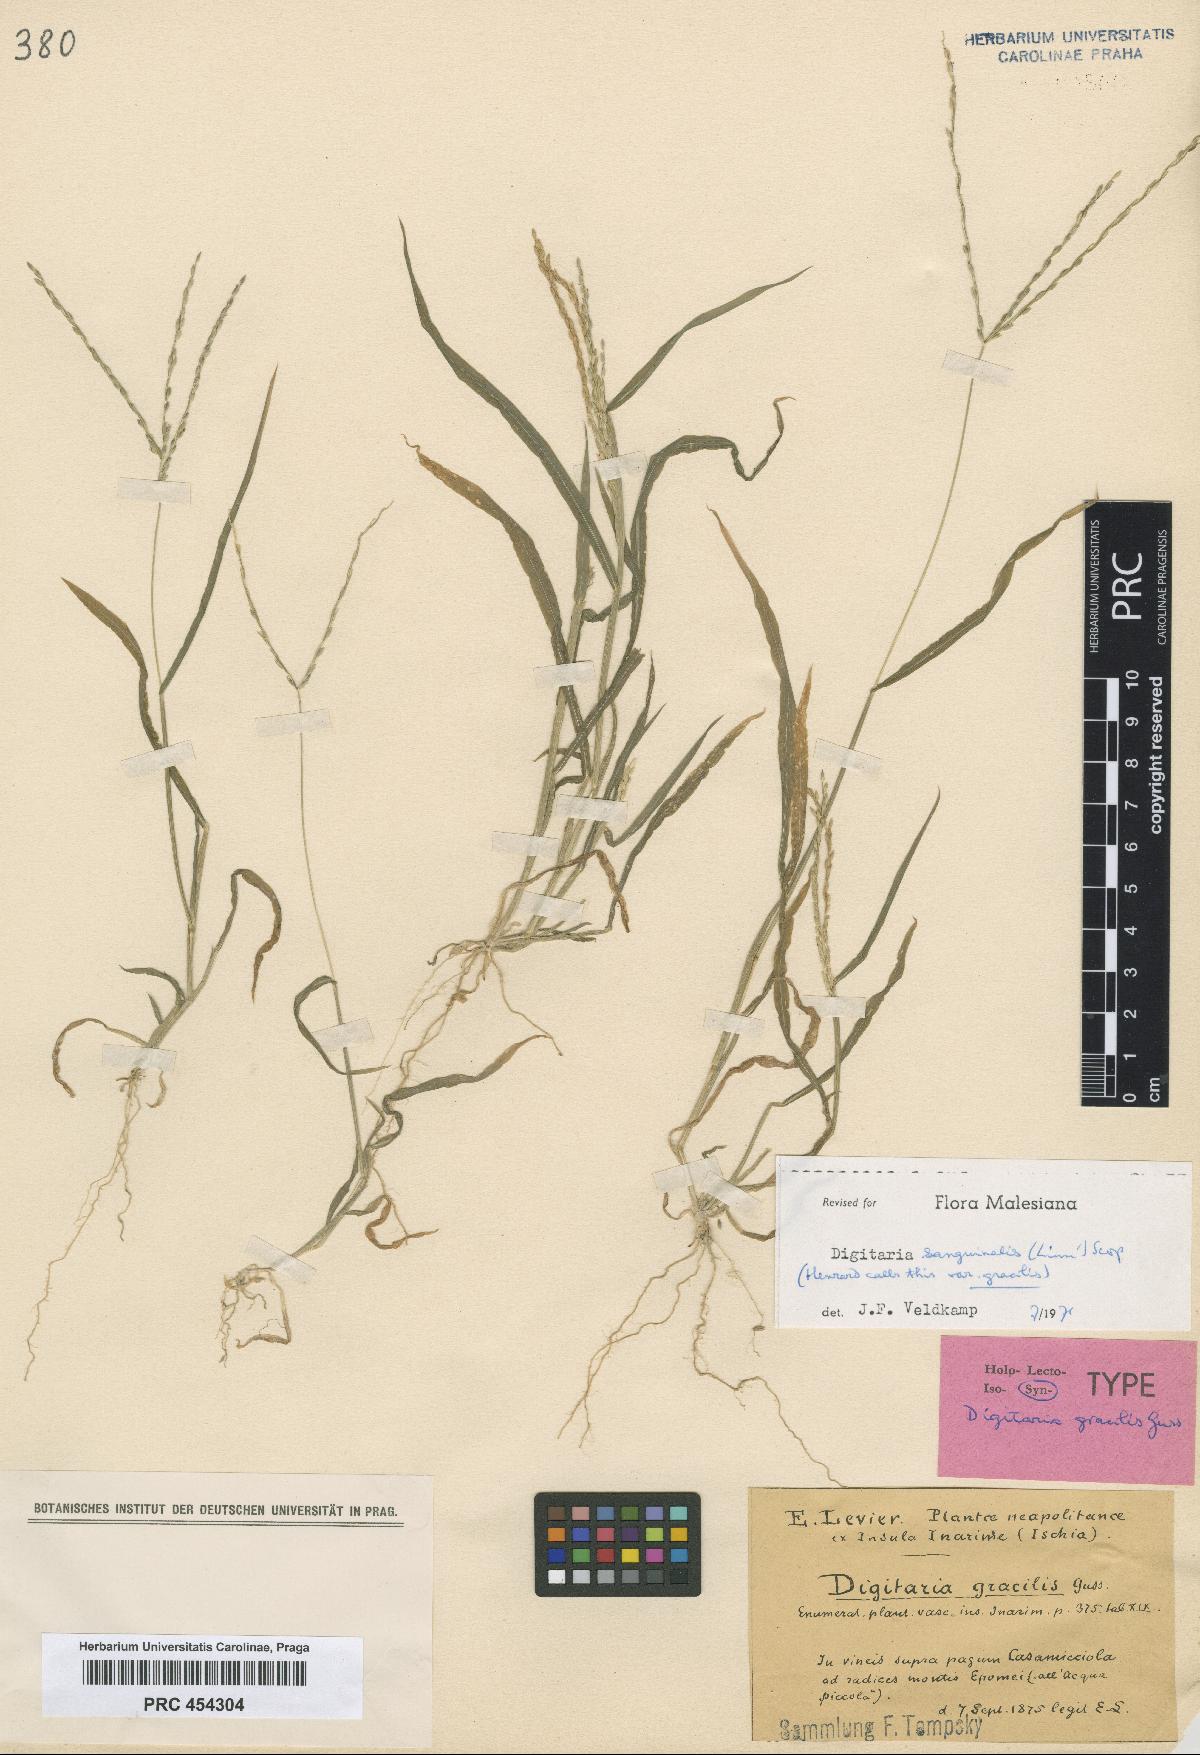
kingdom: Plantae
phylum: Tracheophyta
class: Liliopsida
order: Poales
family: Poaceae
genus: Digitaria
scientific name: Digitaria sanguinalis
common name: Hairy crabgrass
